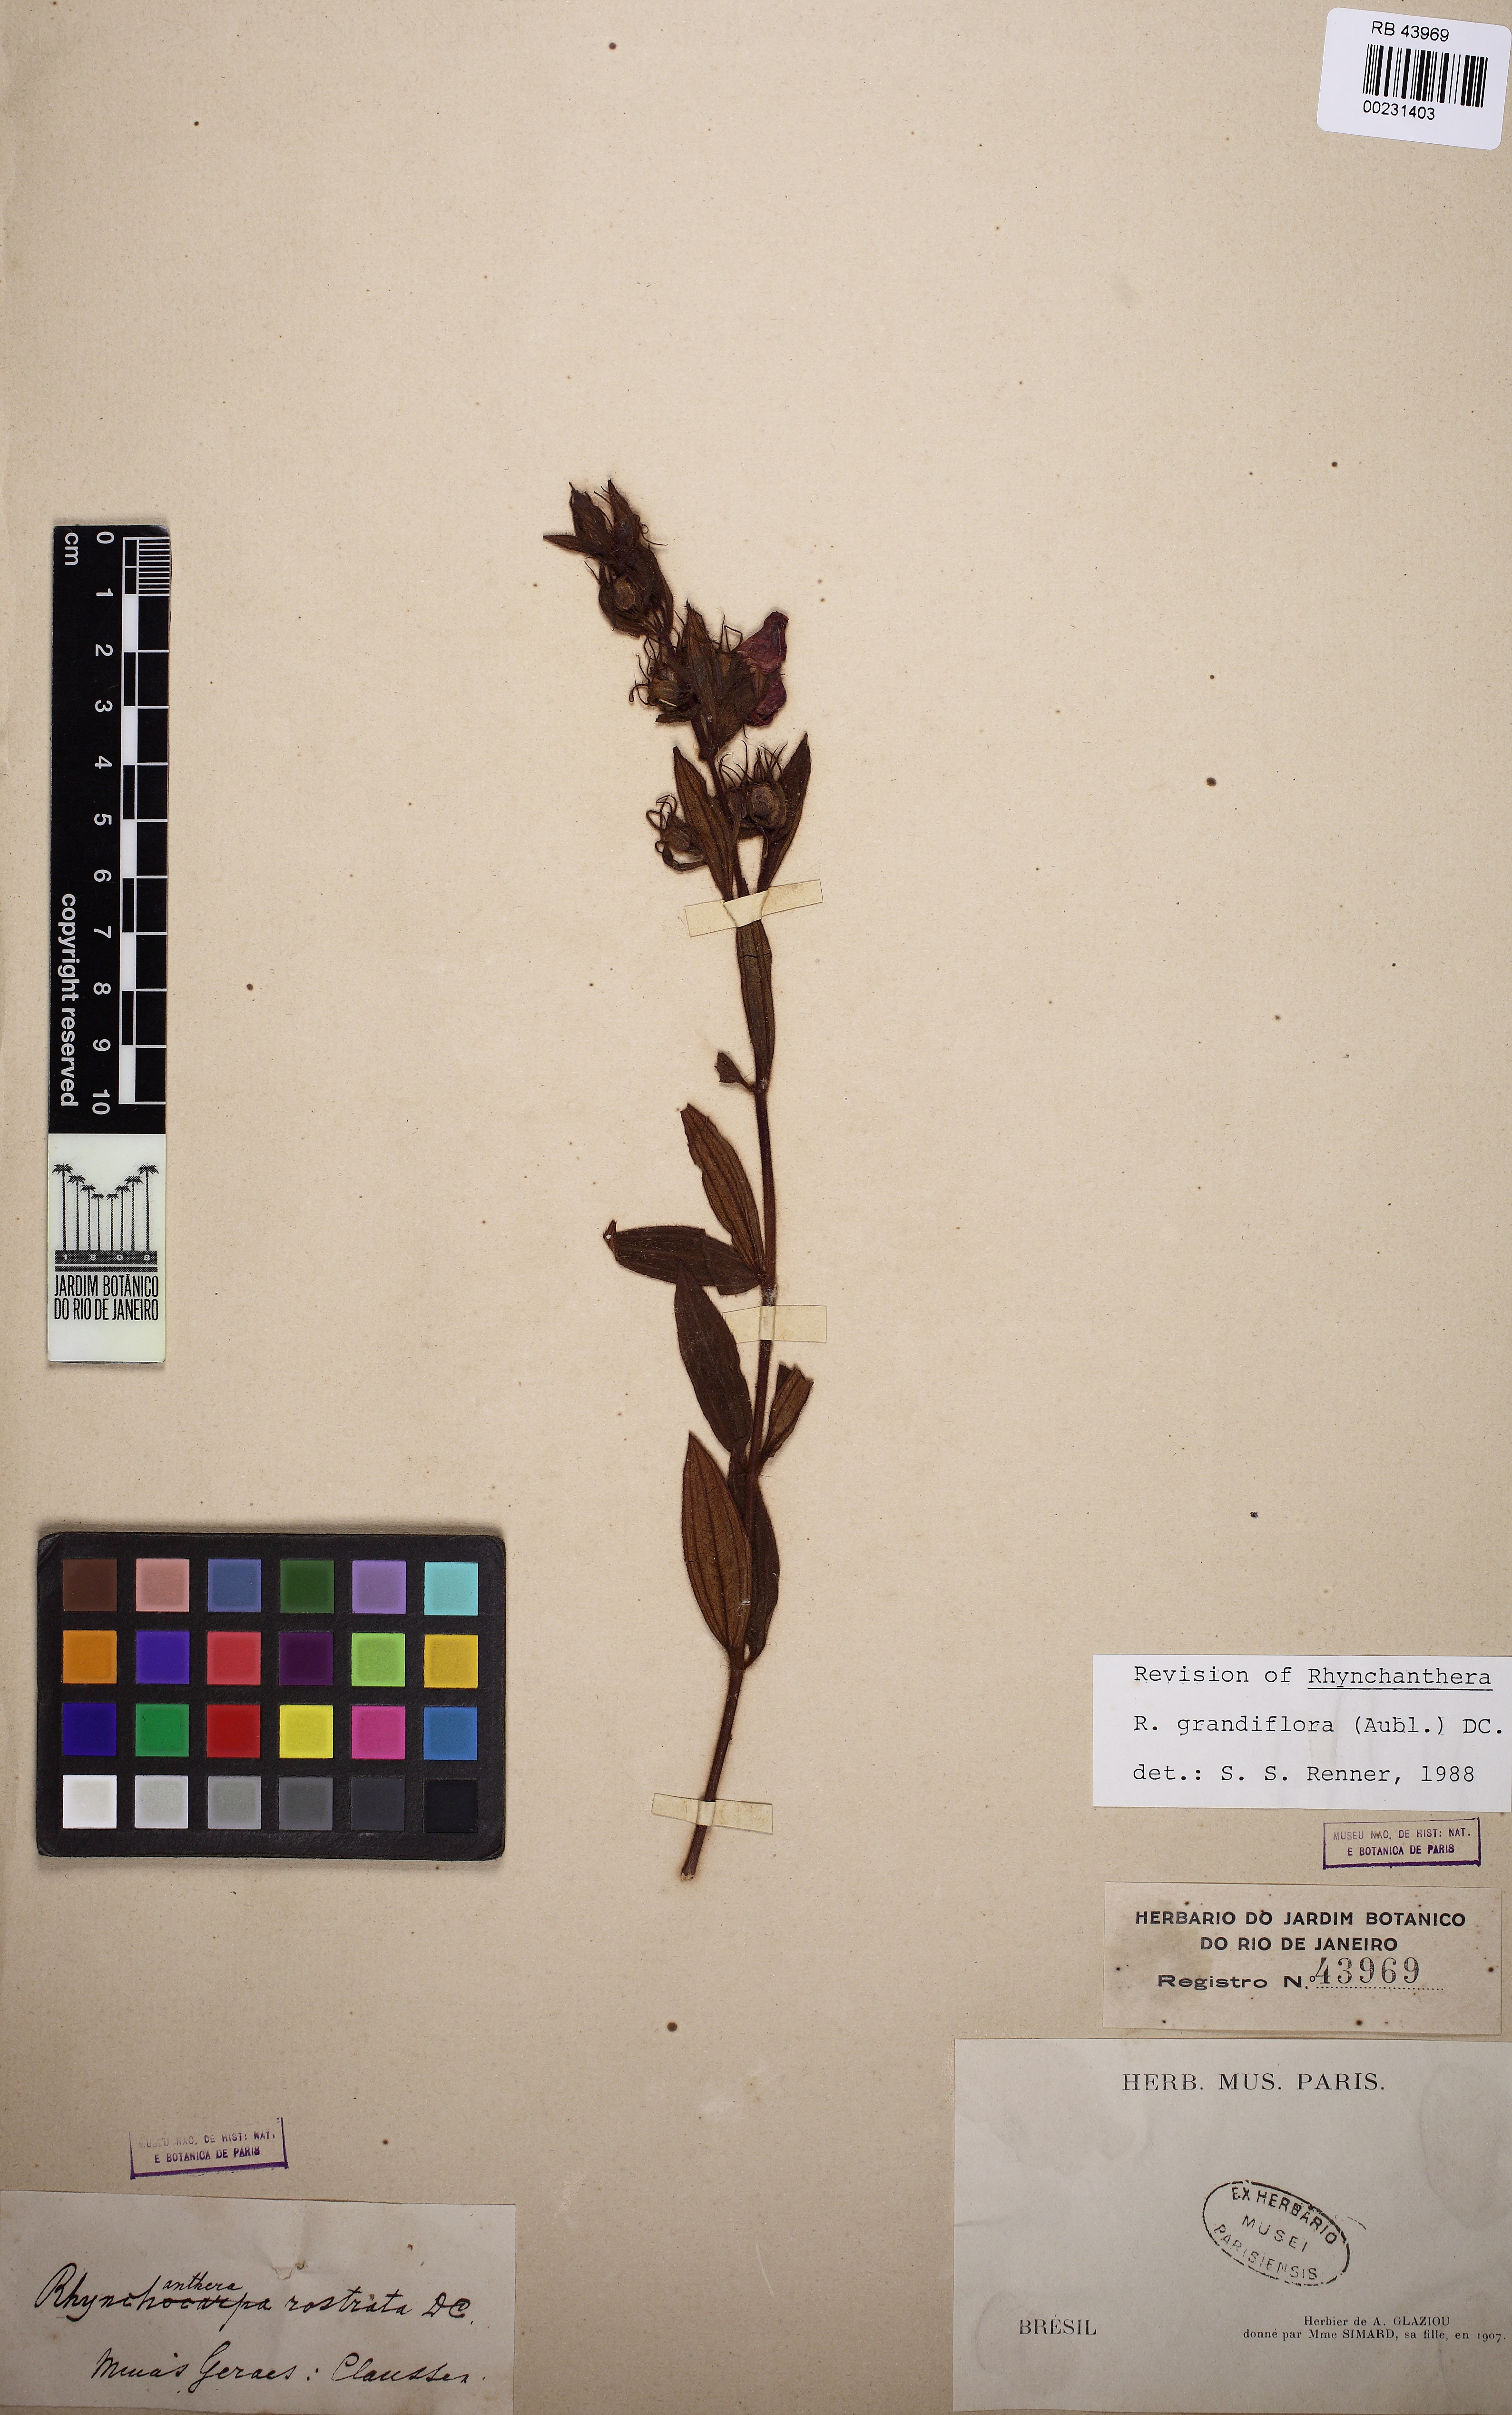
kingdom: Plantae
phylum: Tracheophyta
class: Magnoliopsida
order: Myrtales
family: Melastomataceae
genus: Rhynchanthera
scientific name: Rhynchanthera grandiflora
